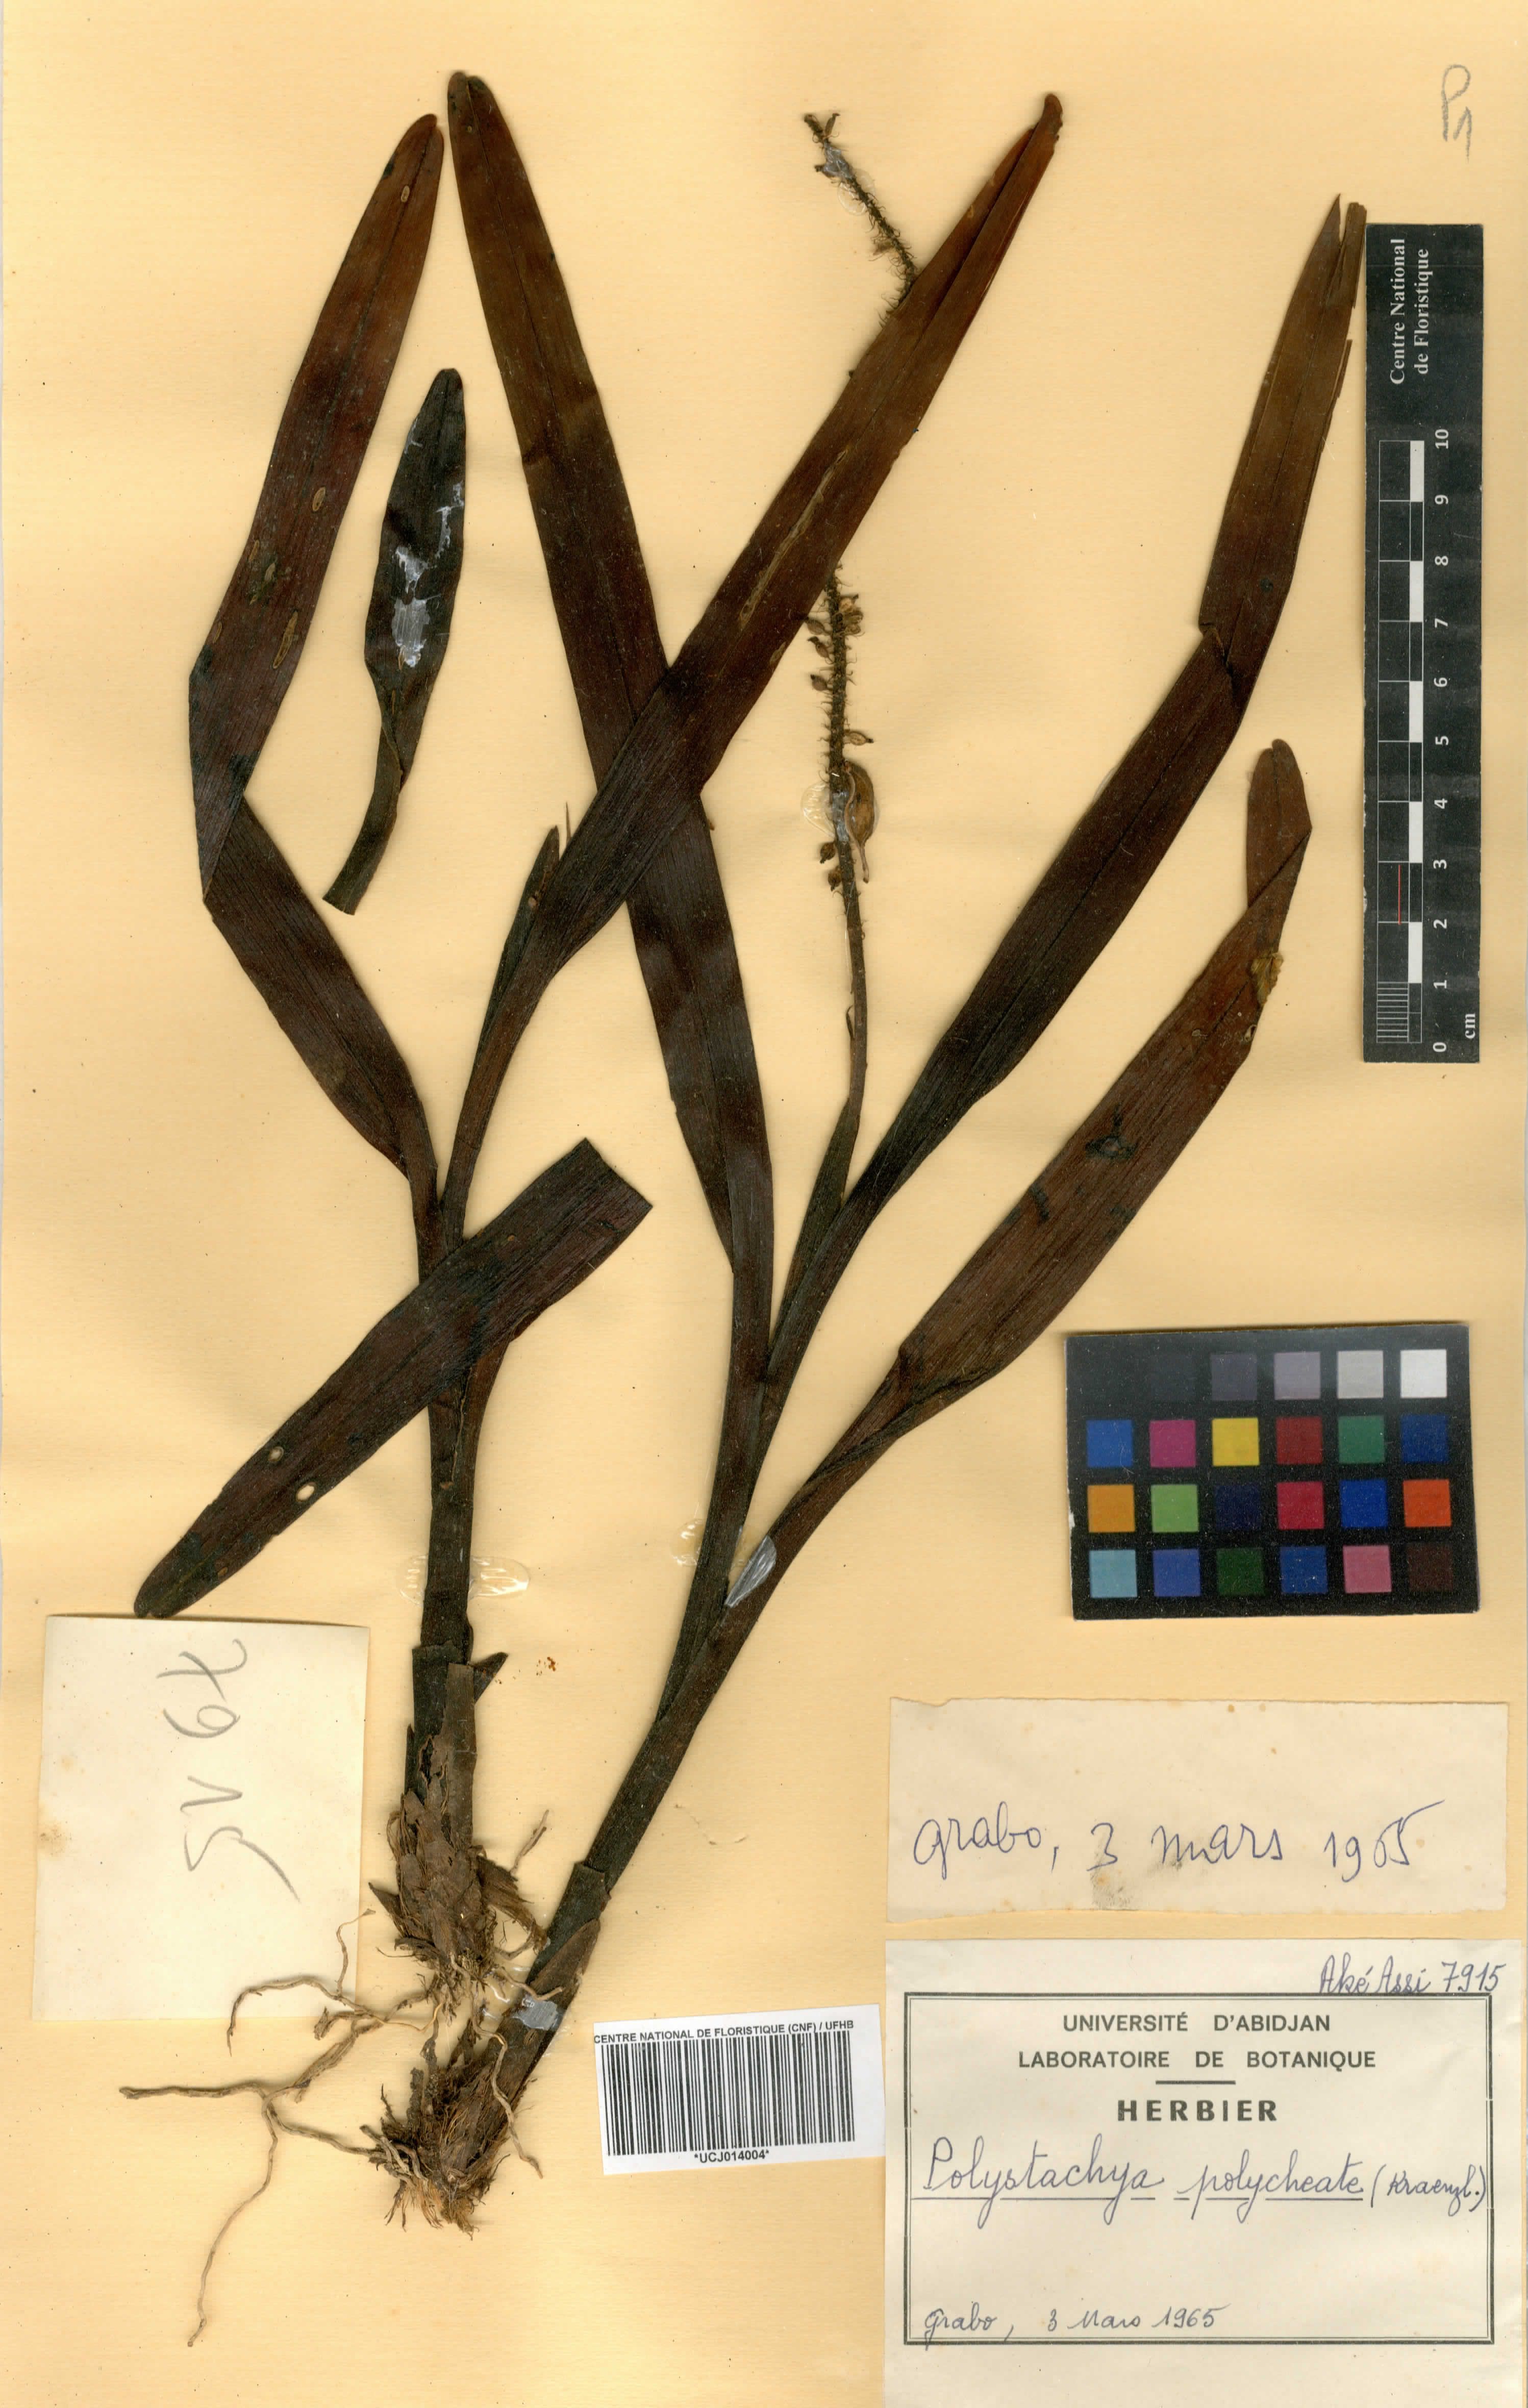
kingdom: Plantae
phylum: Tracheophyta
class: Liliopsida
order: Asparagales
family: Orchidaceae
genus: Polystachya
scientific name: Polystachya polychaete
